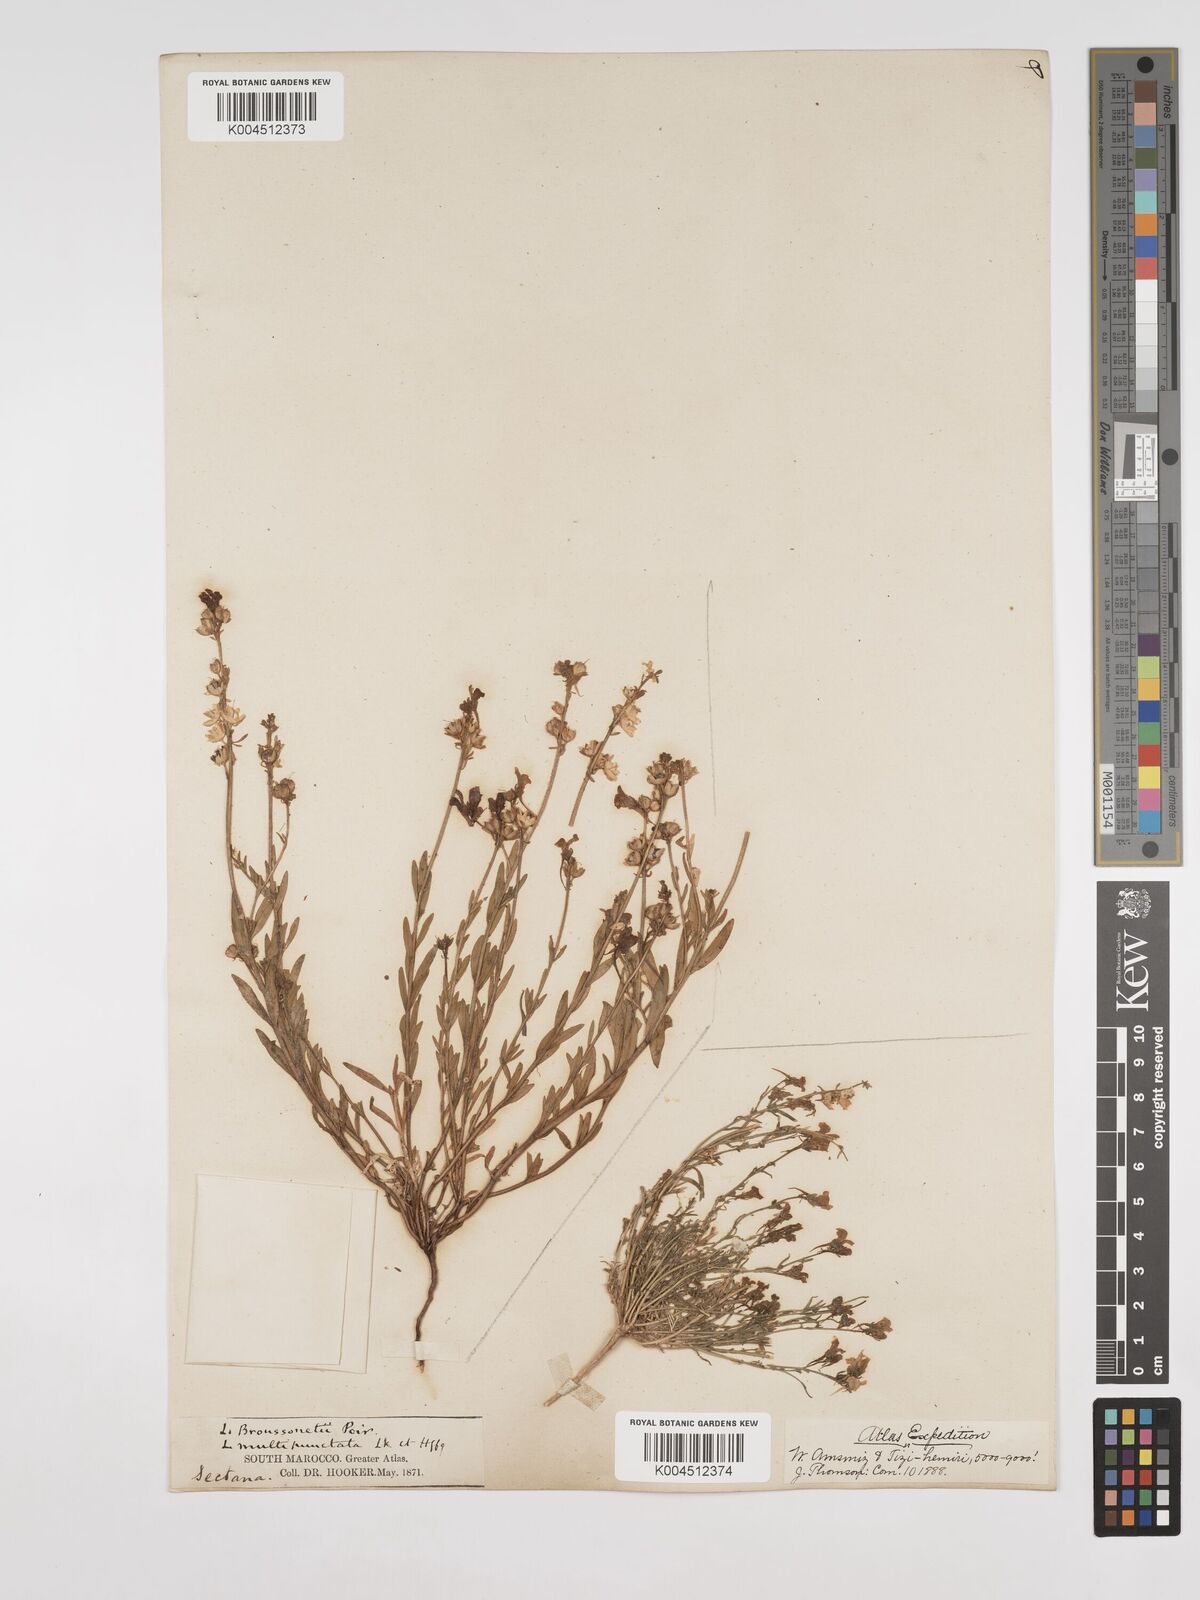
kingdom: Plantae
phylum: Tracheophyta
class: Magnoliopsida
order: Lamiales
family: Plantaginaceae
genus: Linaria
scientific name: Linaria
